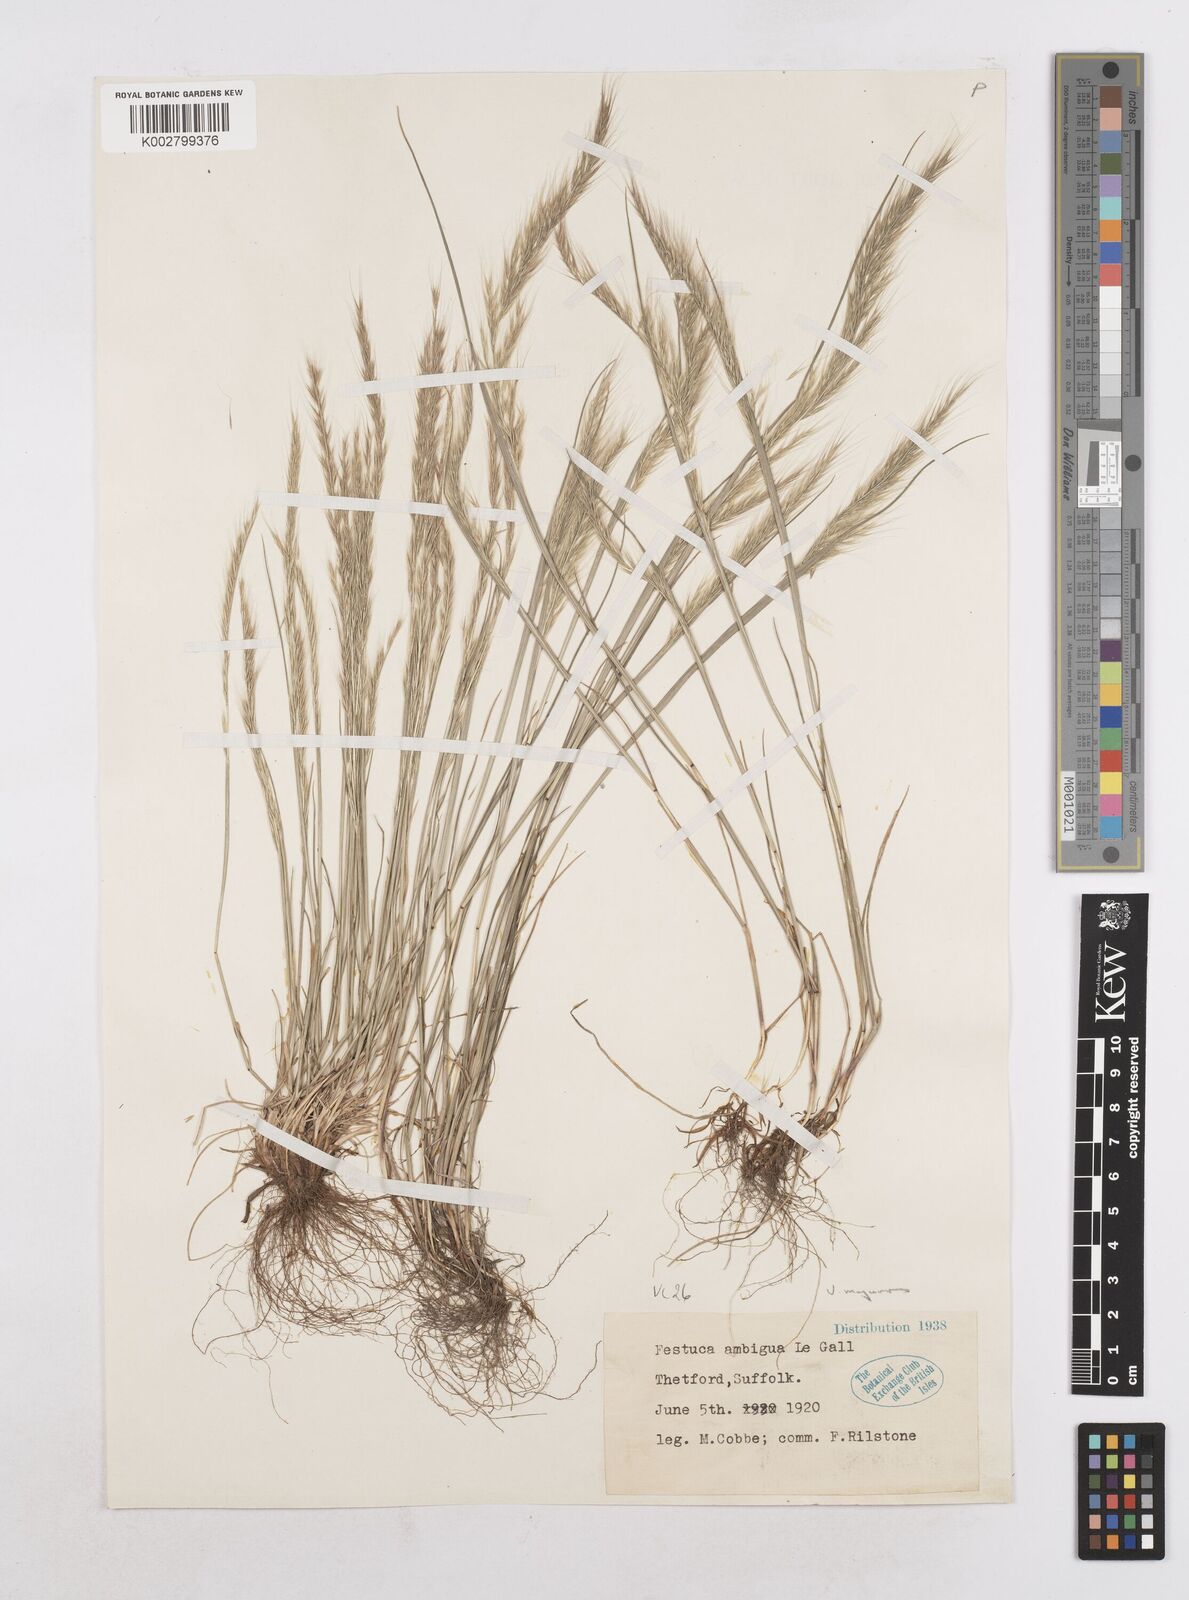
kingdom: Plantae
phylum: Tracheophyta
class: Liliopsida
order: Poales
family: Poaceae
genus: Festuca
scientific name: Festuca myuros
